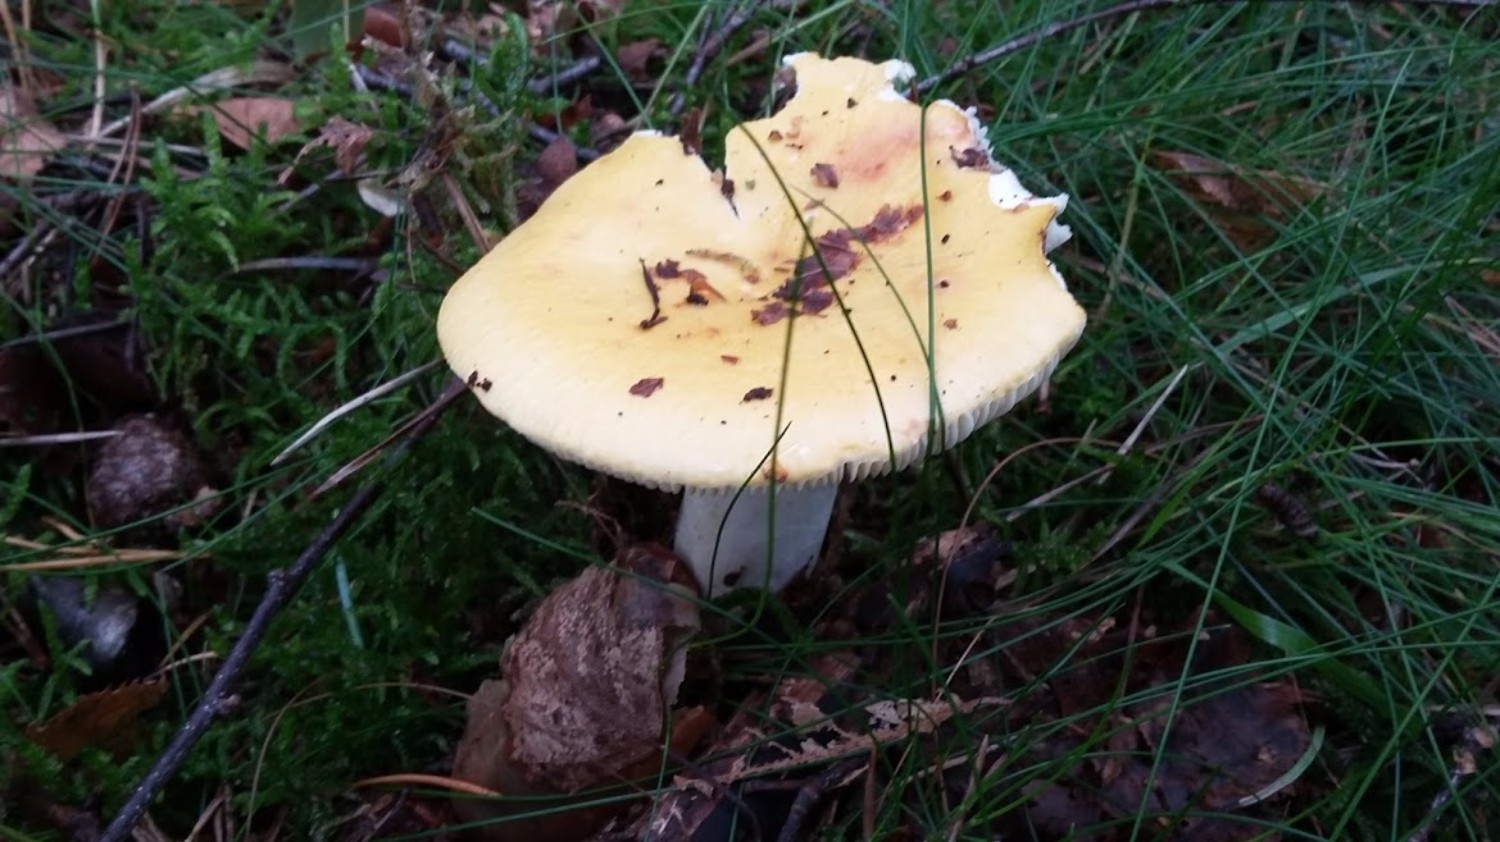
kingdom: Fungi
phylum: Basidiomycota
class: Agaricomycetes
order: Russulales
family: Russulaceae
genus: Russula
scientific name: Russula claroflava
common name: birke-skørhat
